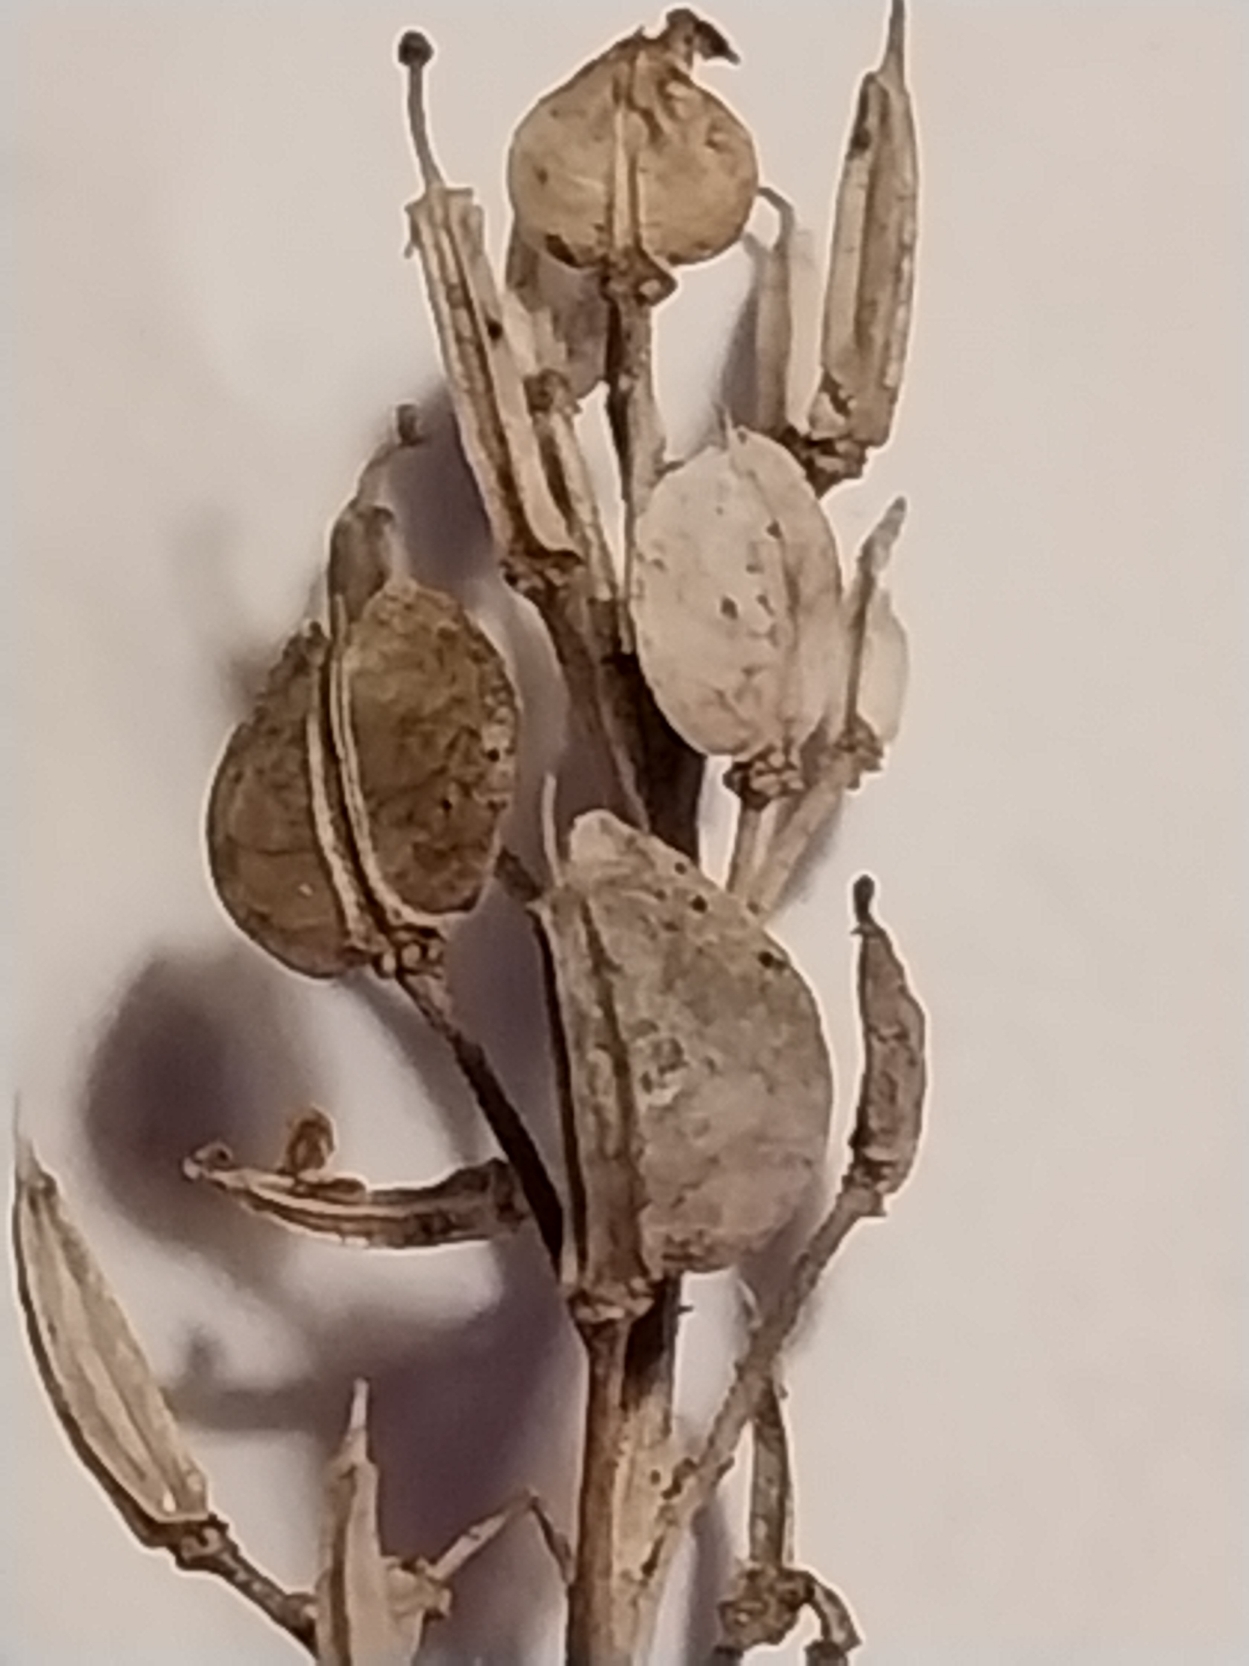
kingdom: Plantae
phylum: Tracheophyta
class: Magnoliopsida
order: Brassicales
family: Brassicaceae
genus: Iberis
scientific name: Iberis amara
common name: Hvid sløjfeblomst
